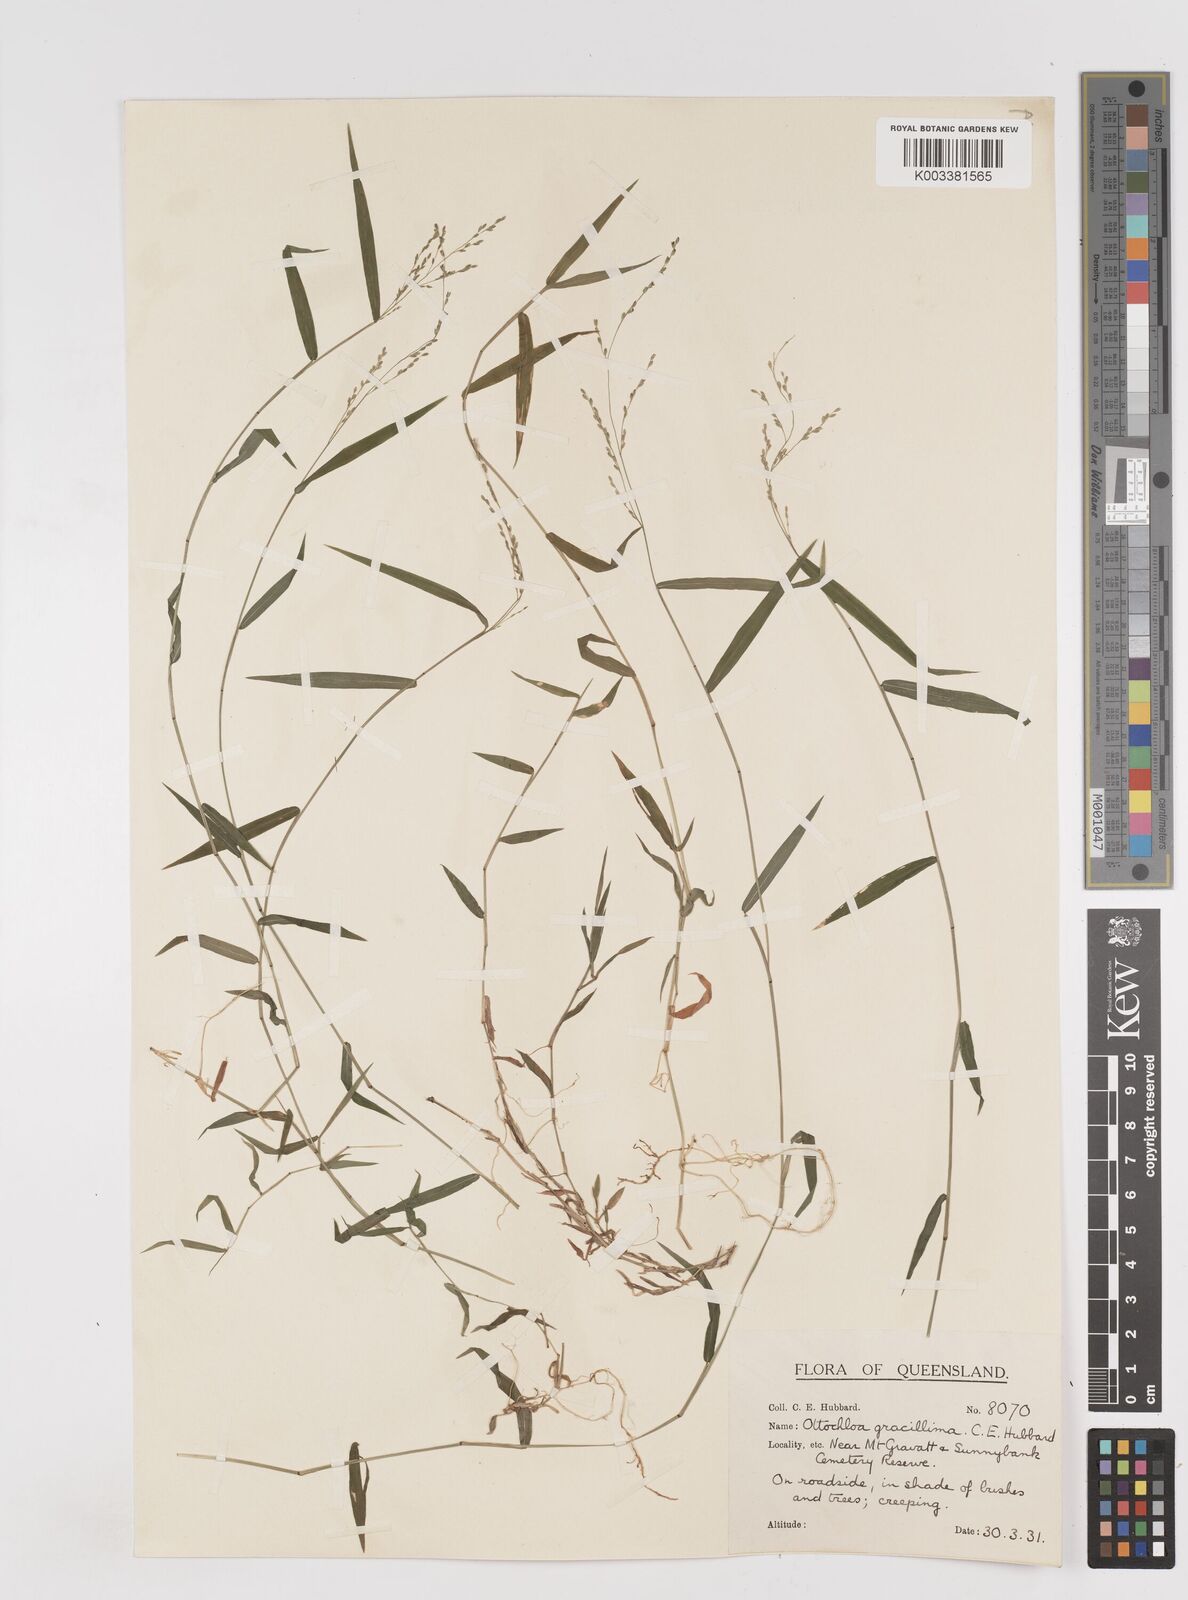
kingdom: Plantae
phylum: Tracheophyta
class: Liliopsida
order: Poales
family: Poaceae
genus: Ottochloa
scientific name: Ottochloa gracillima
